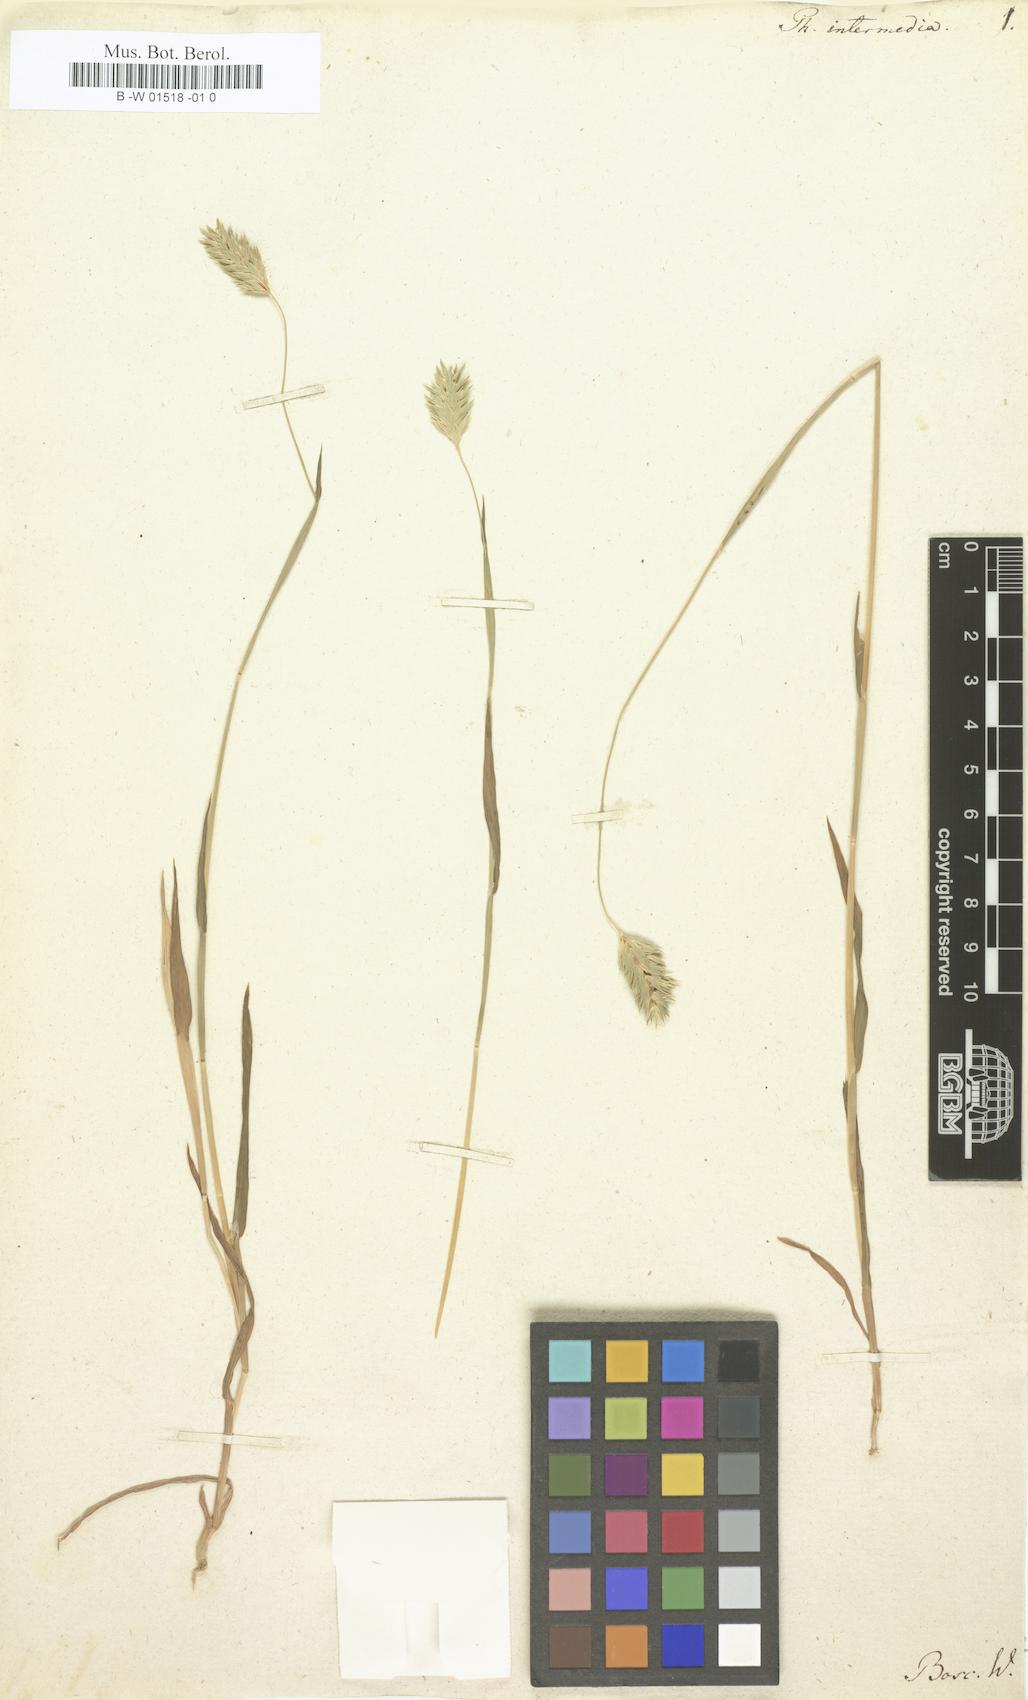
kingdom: Plantae
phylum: Tracheophyta
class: Liliopsida
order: Poales
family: Poaceae
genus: Phalaris
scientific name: Phalaris caroliniana
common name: May grass
